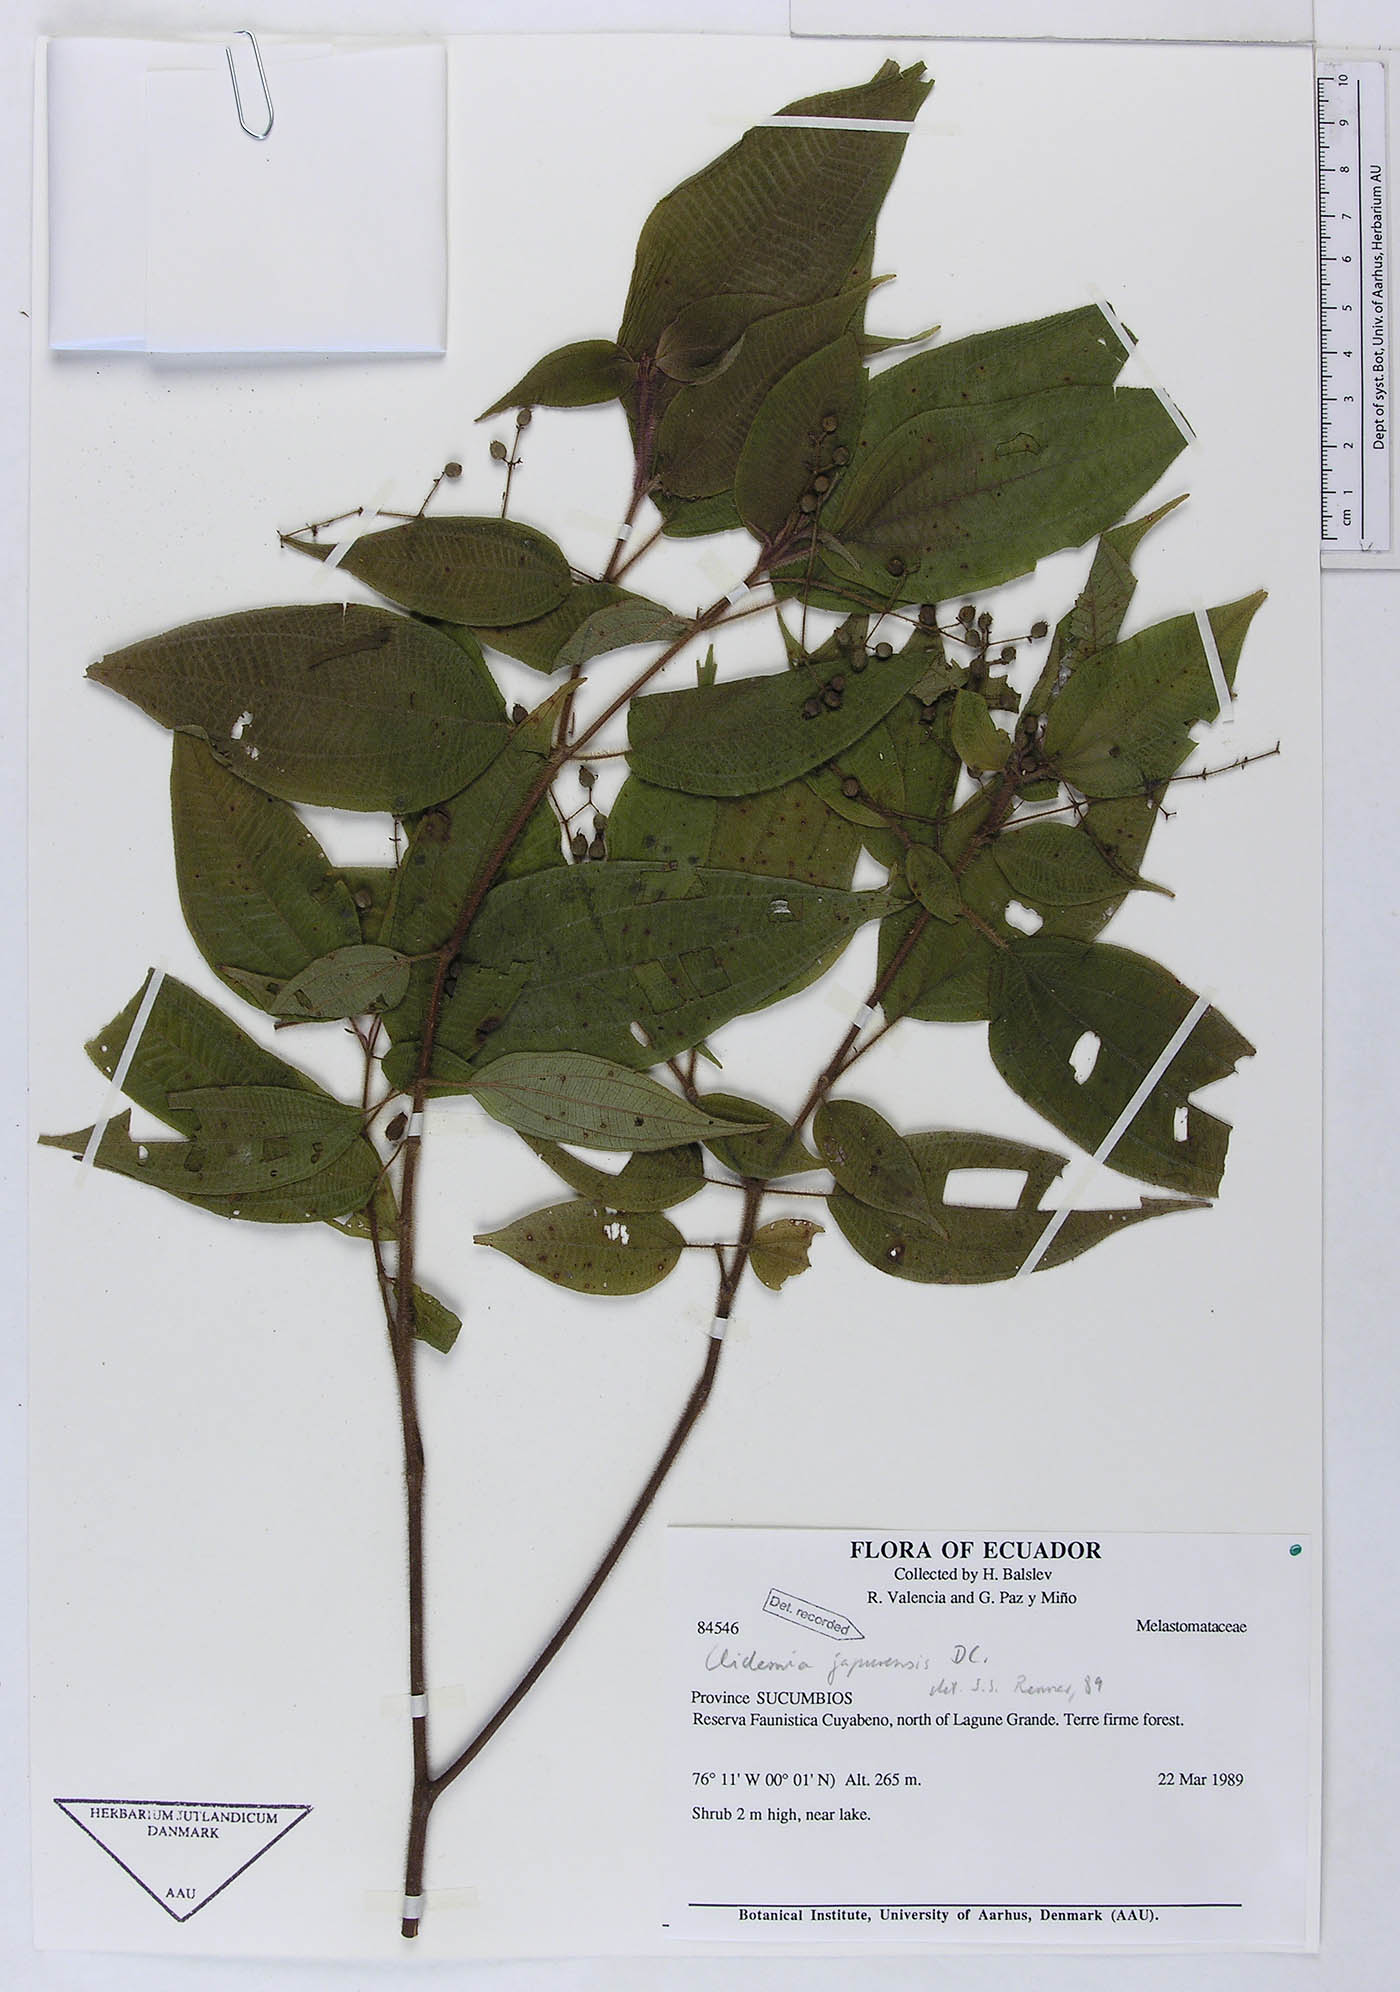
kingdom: Plantae
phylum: Tracheophyta
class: Magnoliopsida
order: Myrtales
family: Melastomataceae
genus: Miconia
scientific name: Miconia heteroclita
